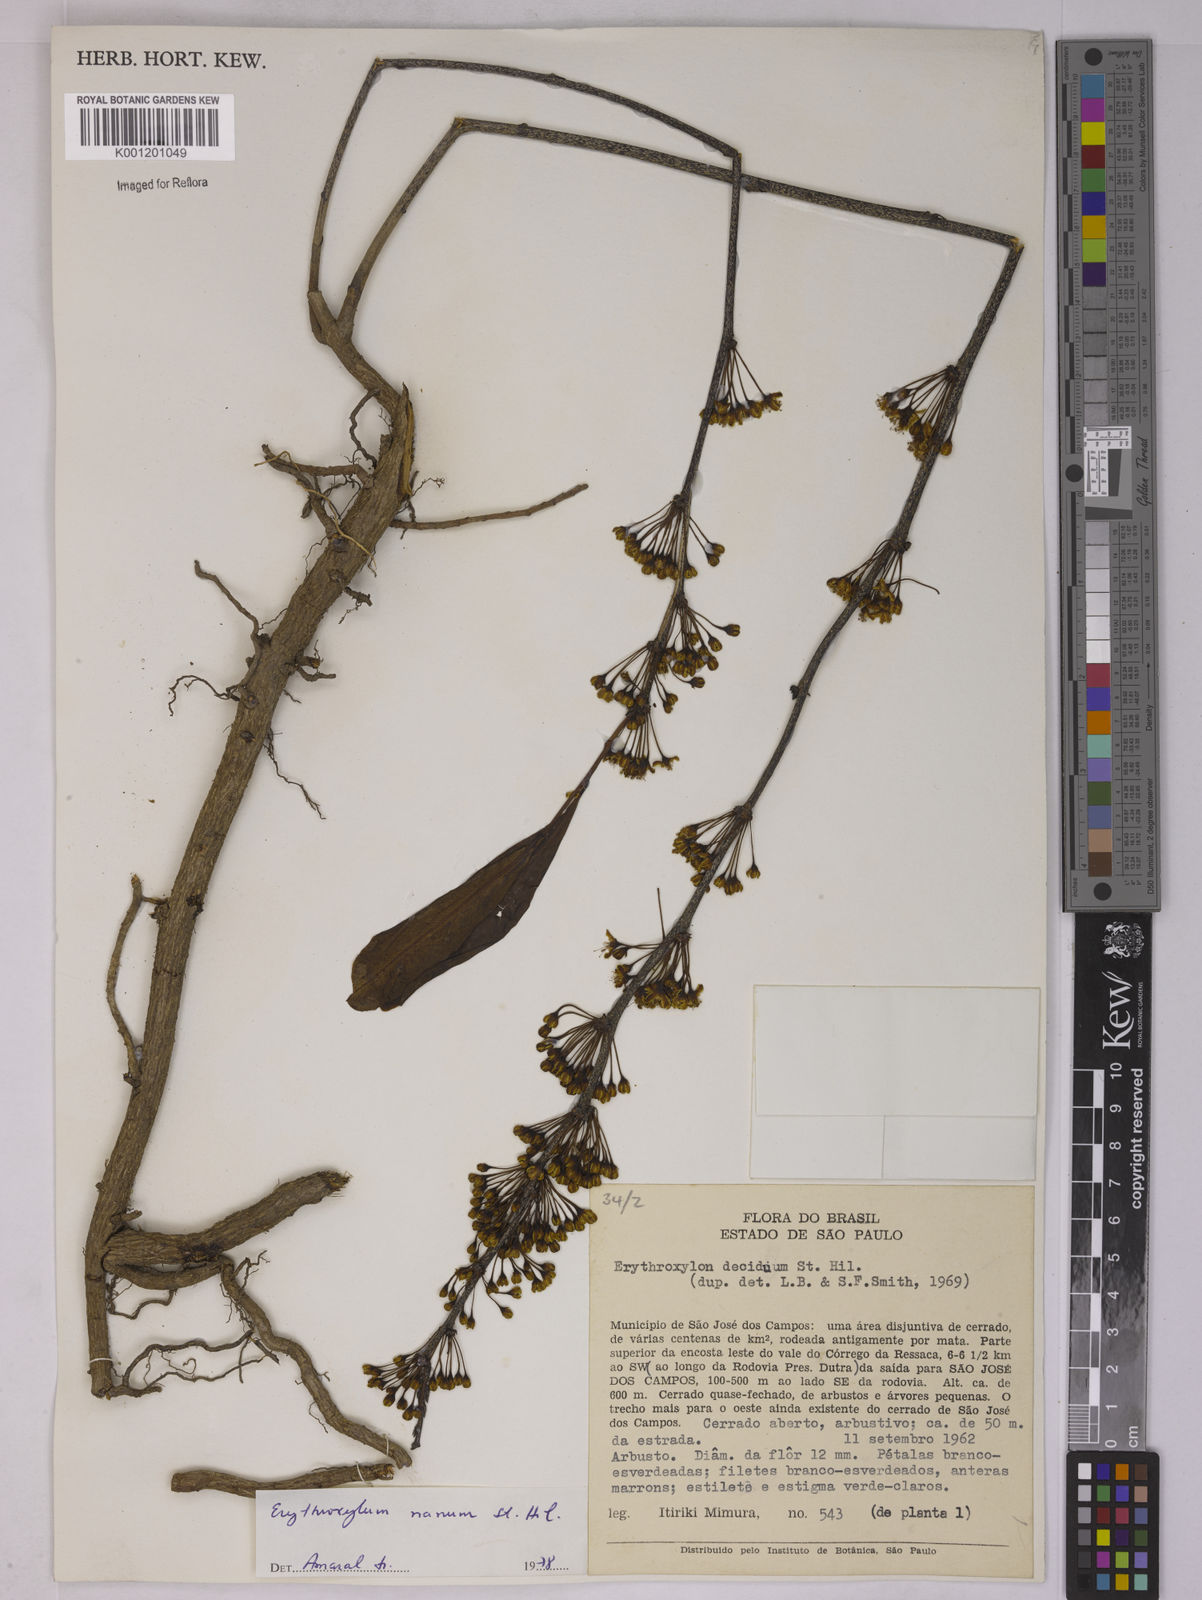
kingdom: Plantae
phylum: Tracheophyta
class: Magnoliopsida
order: Malpighiales
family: Erythroxylaceae
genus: Erythroxylum
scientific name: Erythroxylum deciduum
